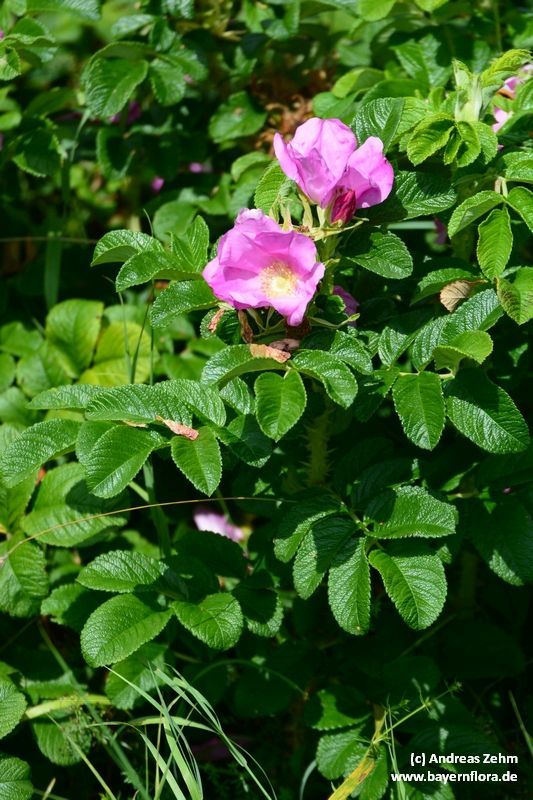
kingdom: Plantae
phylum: Tracheophyta
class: Magnoliopsida
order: Rosales
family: Rosaceae
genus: Rosa
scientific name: Rosa rugosa
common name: Japanese rose
